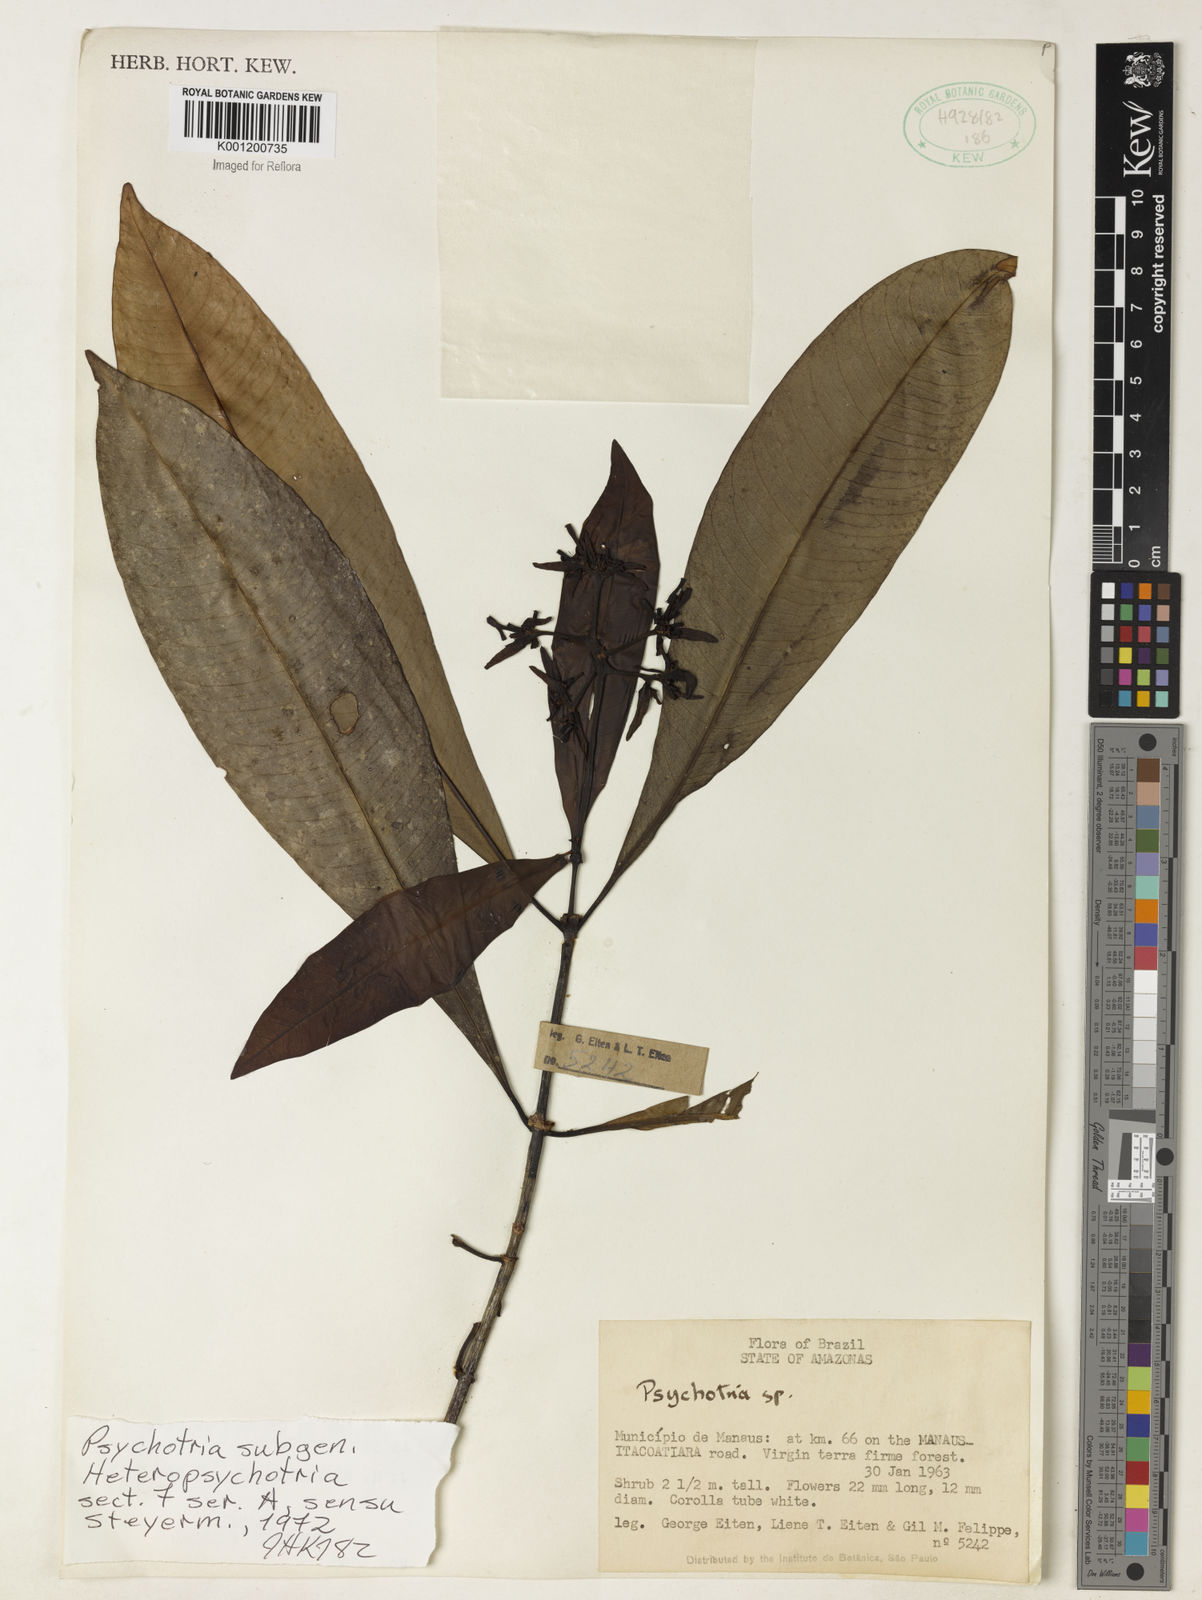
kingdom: Plantae
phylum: Tracheophyta
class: Magnoliopsida
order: Gentianales
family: Rubiaceae
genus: Psychotria
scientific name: Psychotria
